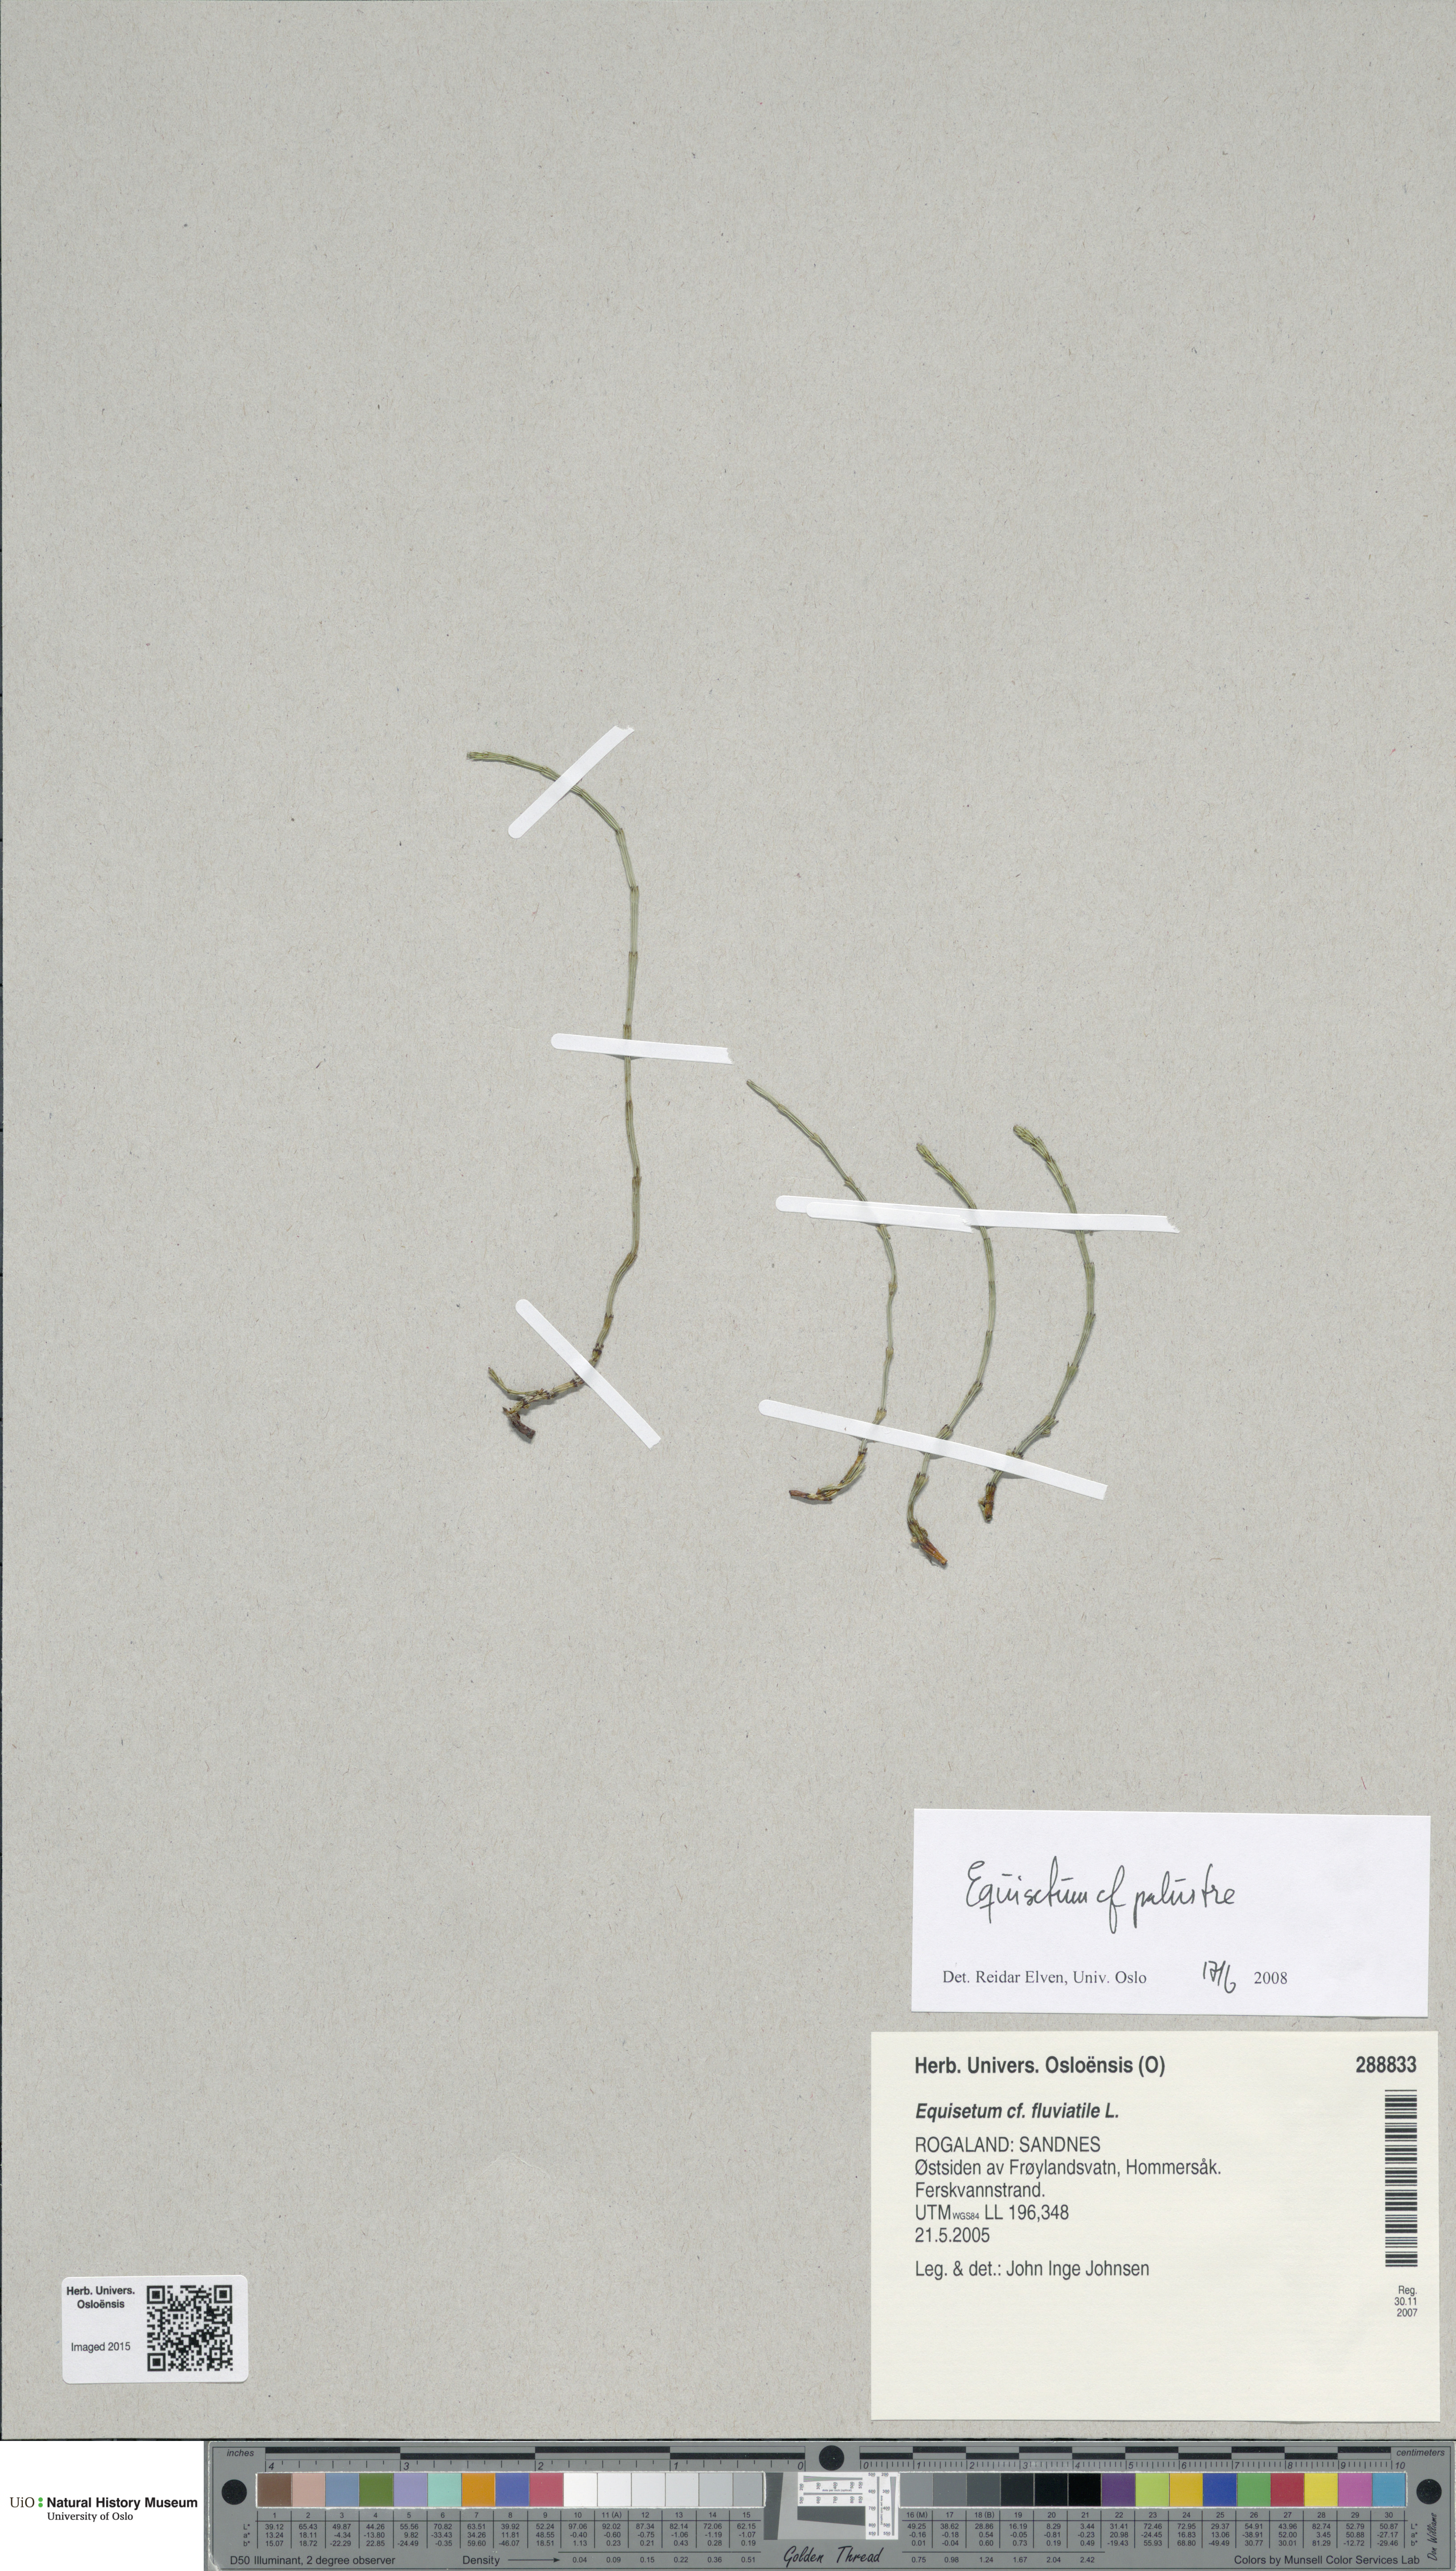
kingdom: Plantae
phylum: Tracheophyta
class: Polypodiopsida
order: Equisetales
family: Equisetaceae
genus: Equisetum
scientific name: Equisetum palustre
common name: Marsh horsetail
